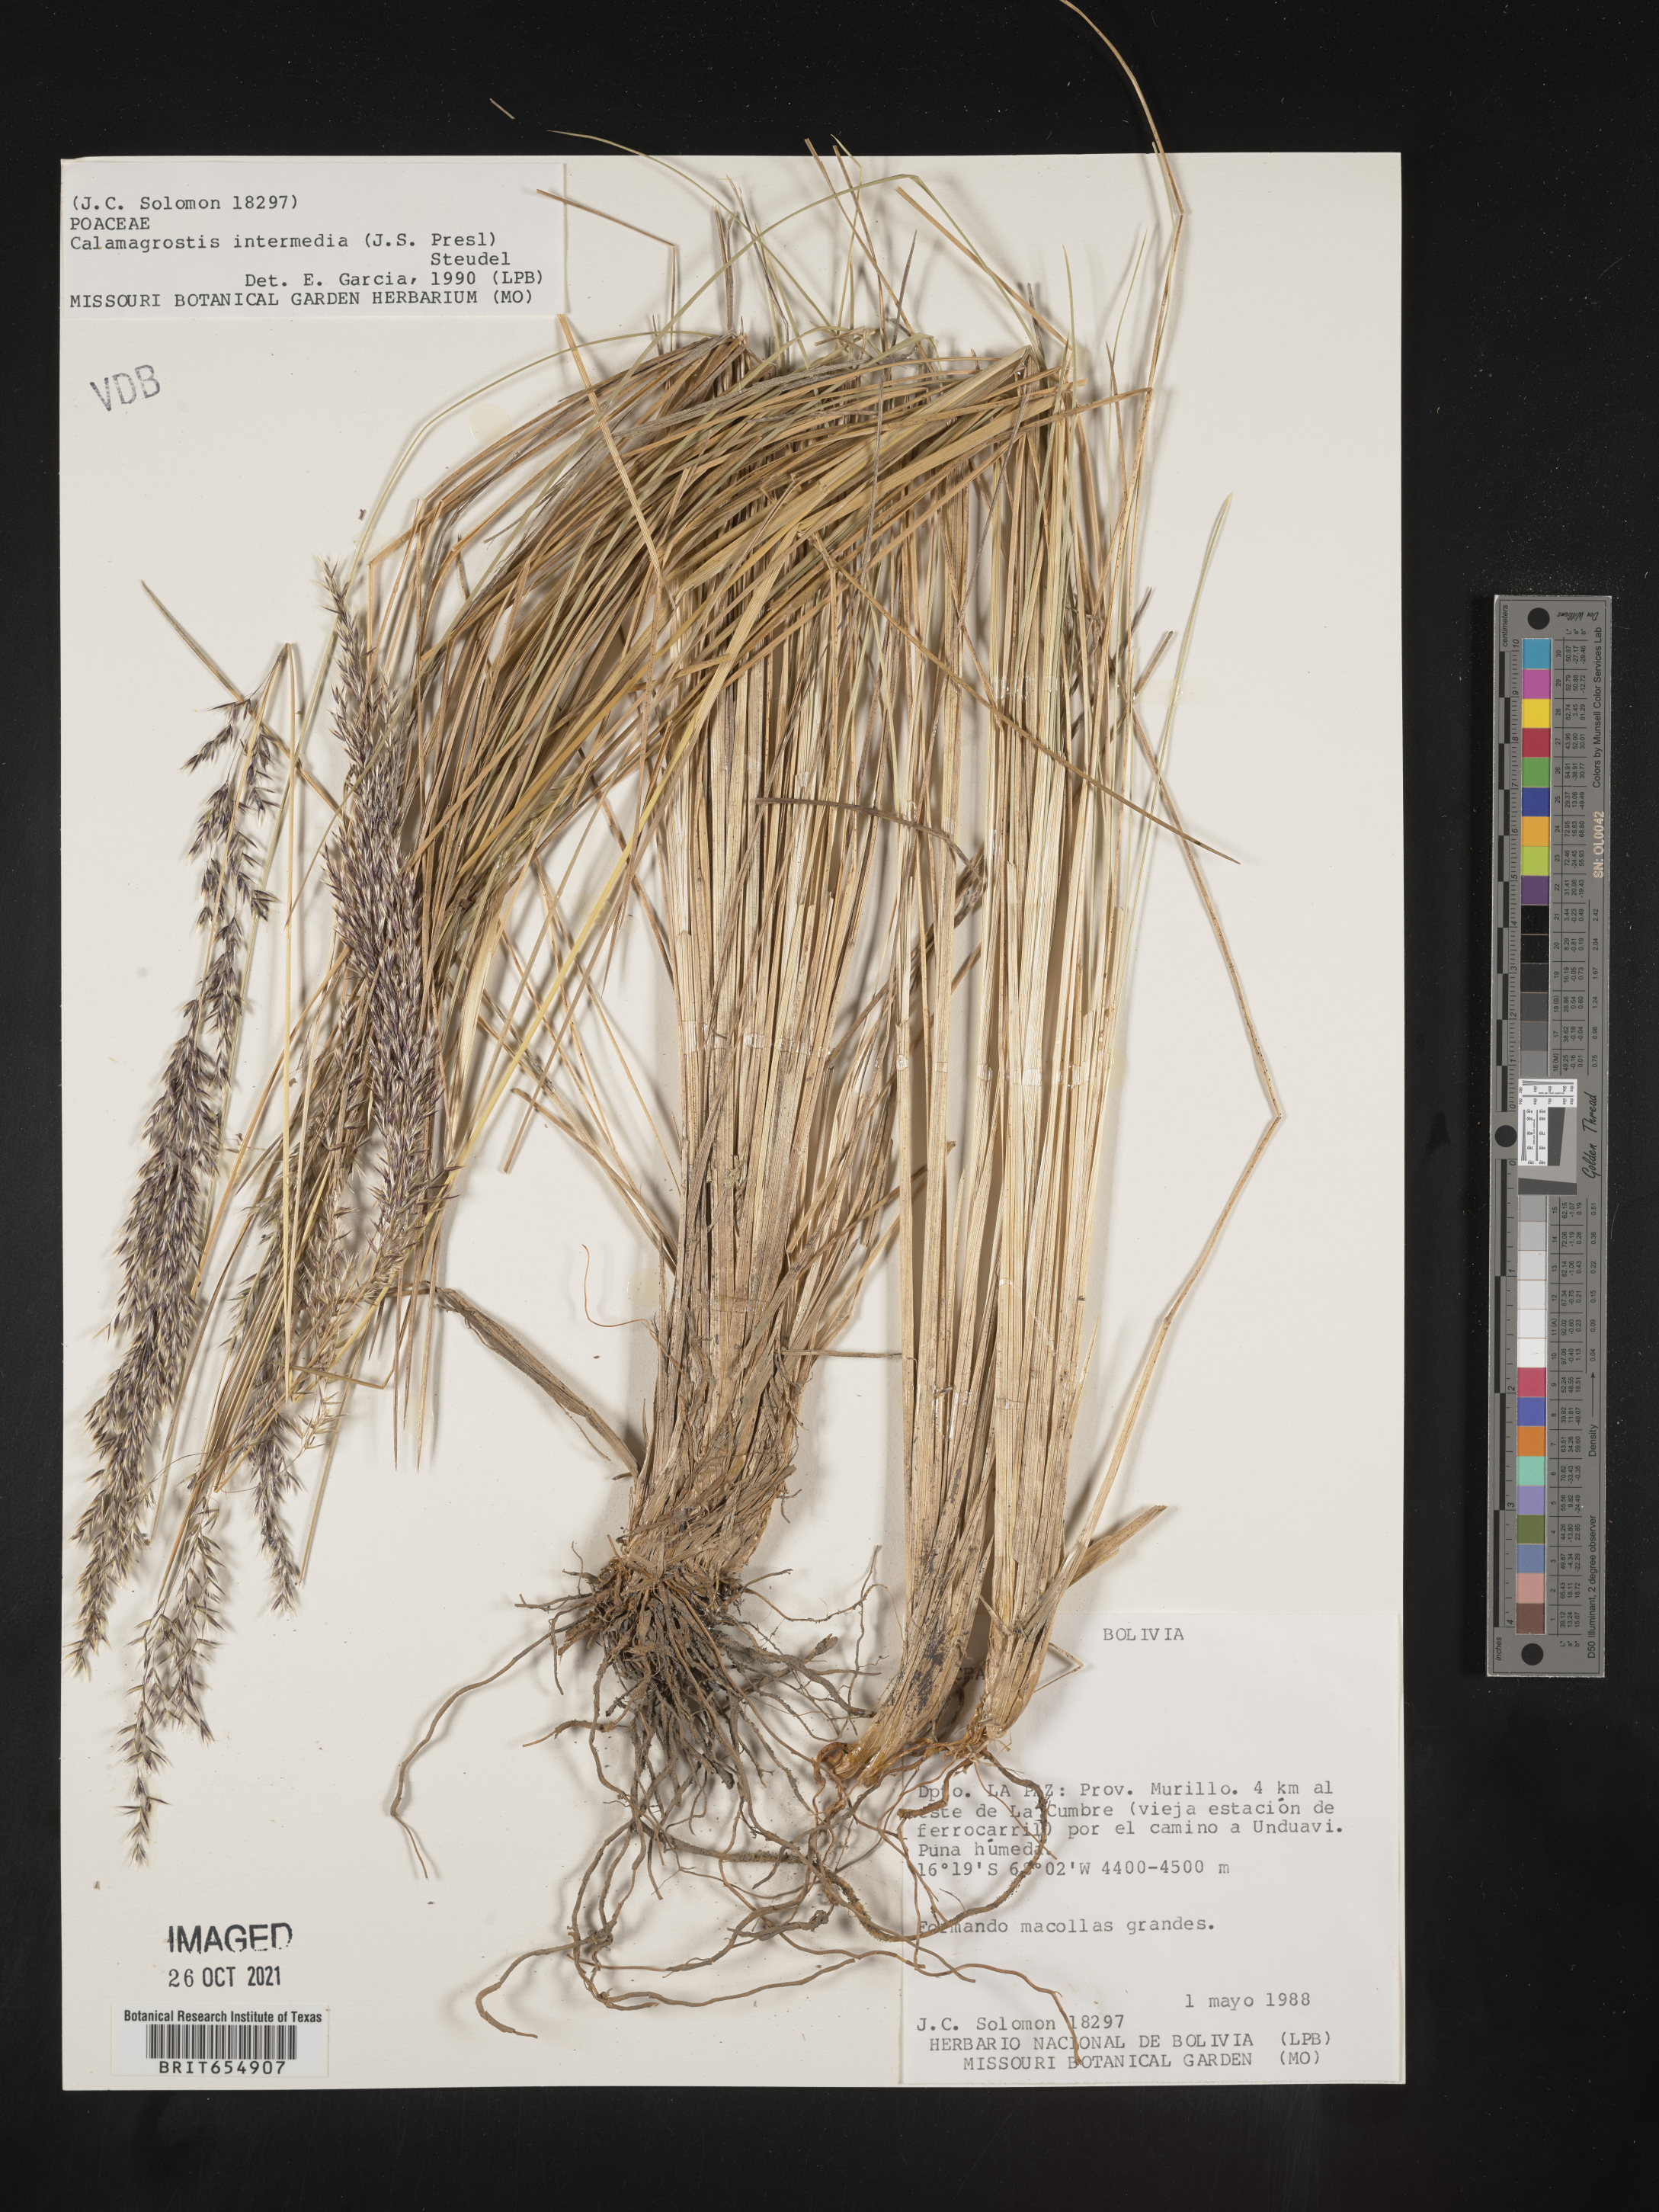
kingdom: Plantae
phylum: Tracheophyta
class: Liliopsida
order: Poales
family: Poaceae
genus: Calamagrostis
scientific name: Calamagrostis
